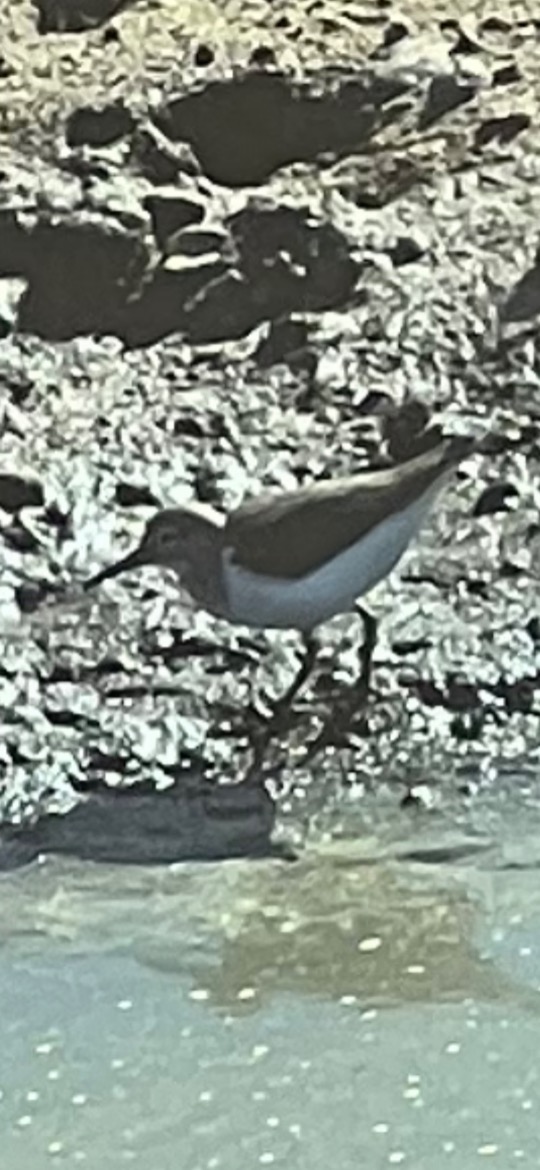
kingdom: Animalia
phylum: Chordata
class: Aves
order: Charadriiformes
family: Scolopacidae
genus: Actitis
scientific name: Actitis hypoleucos
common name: Mudderklire
